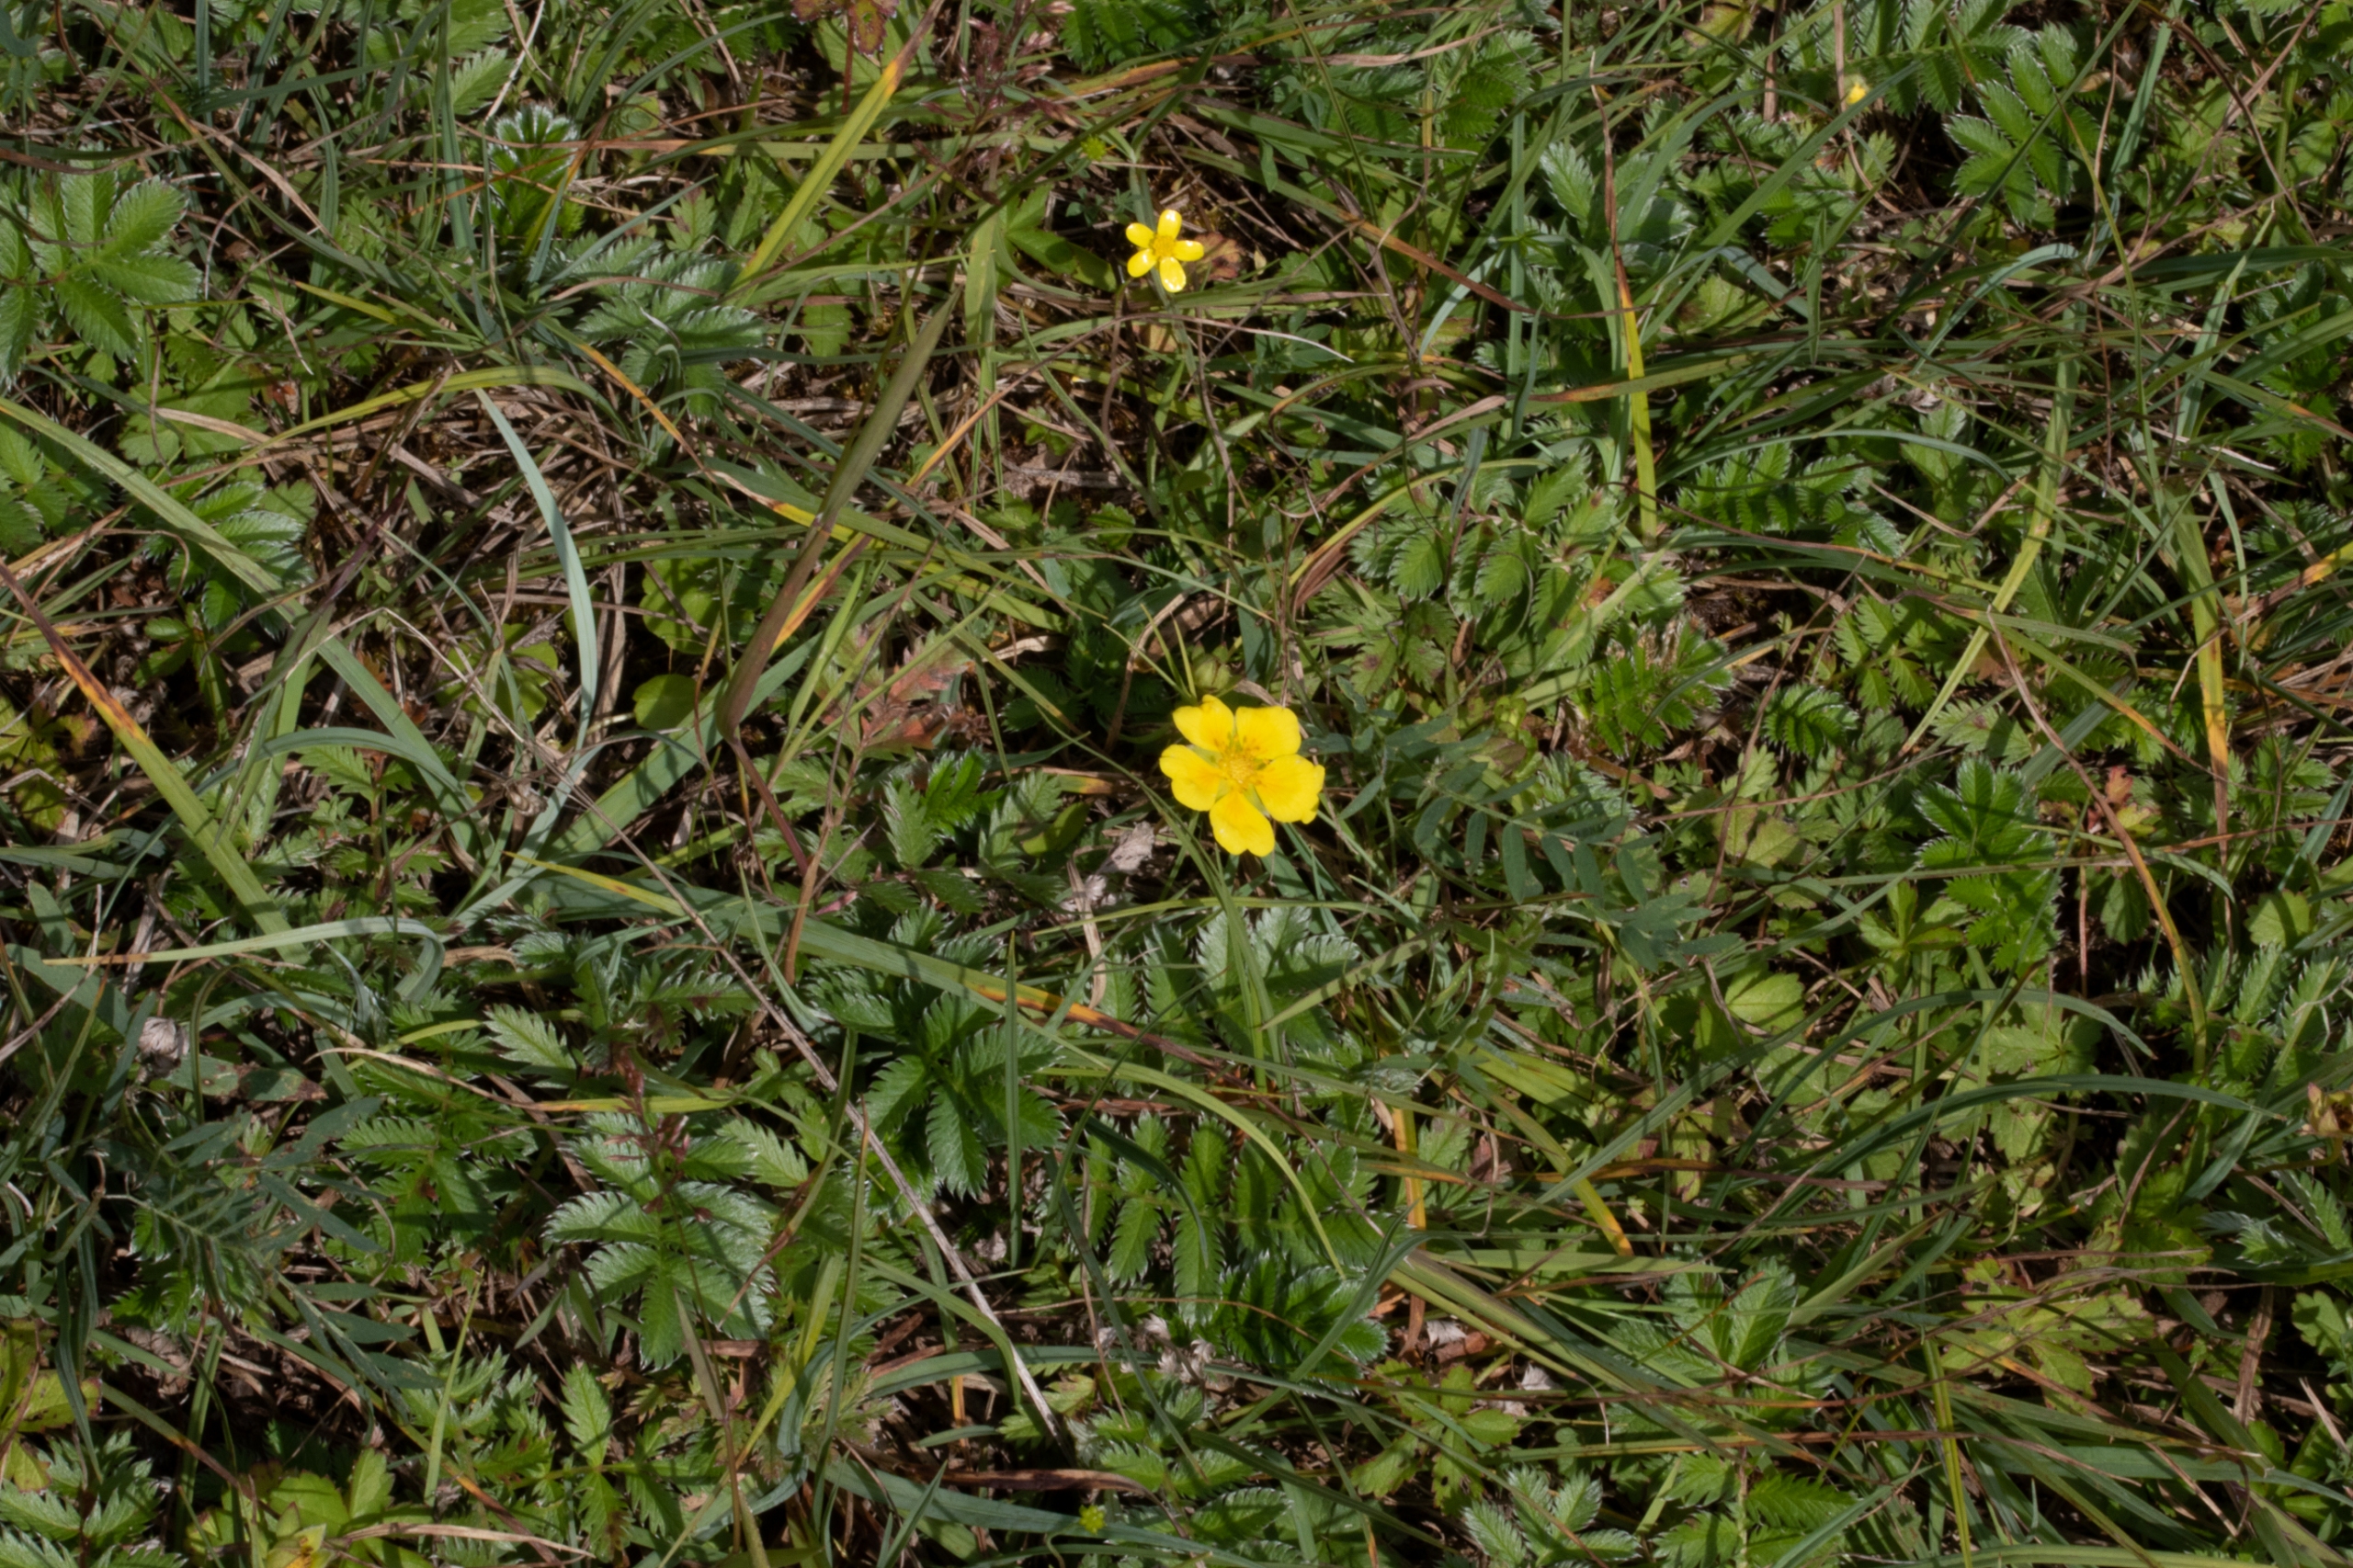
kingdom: Plantae
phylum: Tracheophyta
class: Magnoliopsida
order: Rosales
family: Rosaceae
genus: Argentina
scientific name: Argentina anserina
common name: Gåsepotentil
